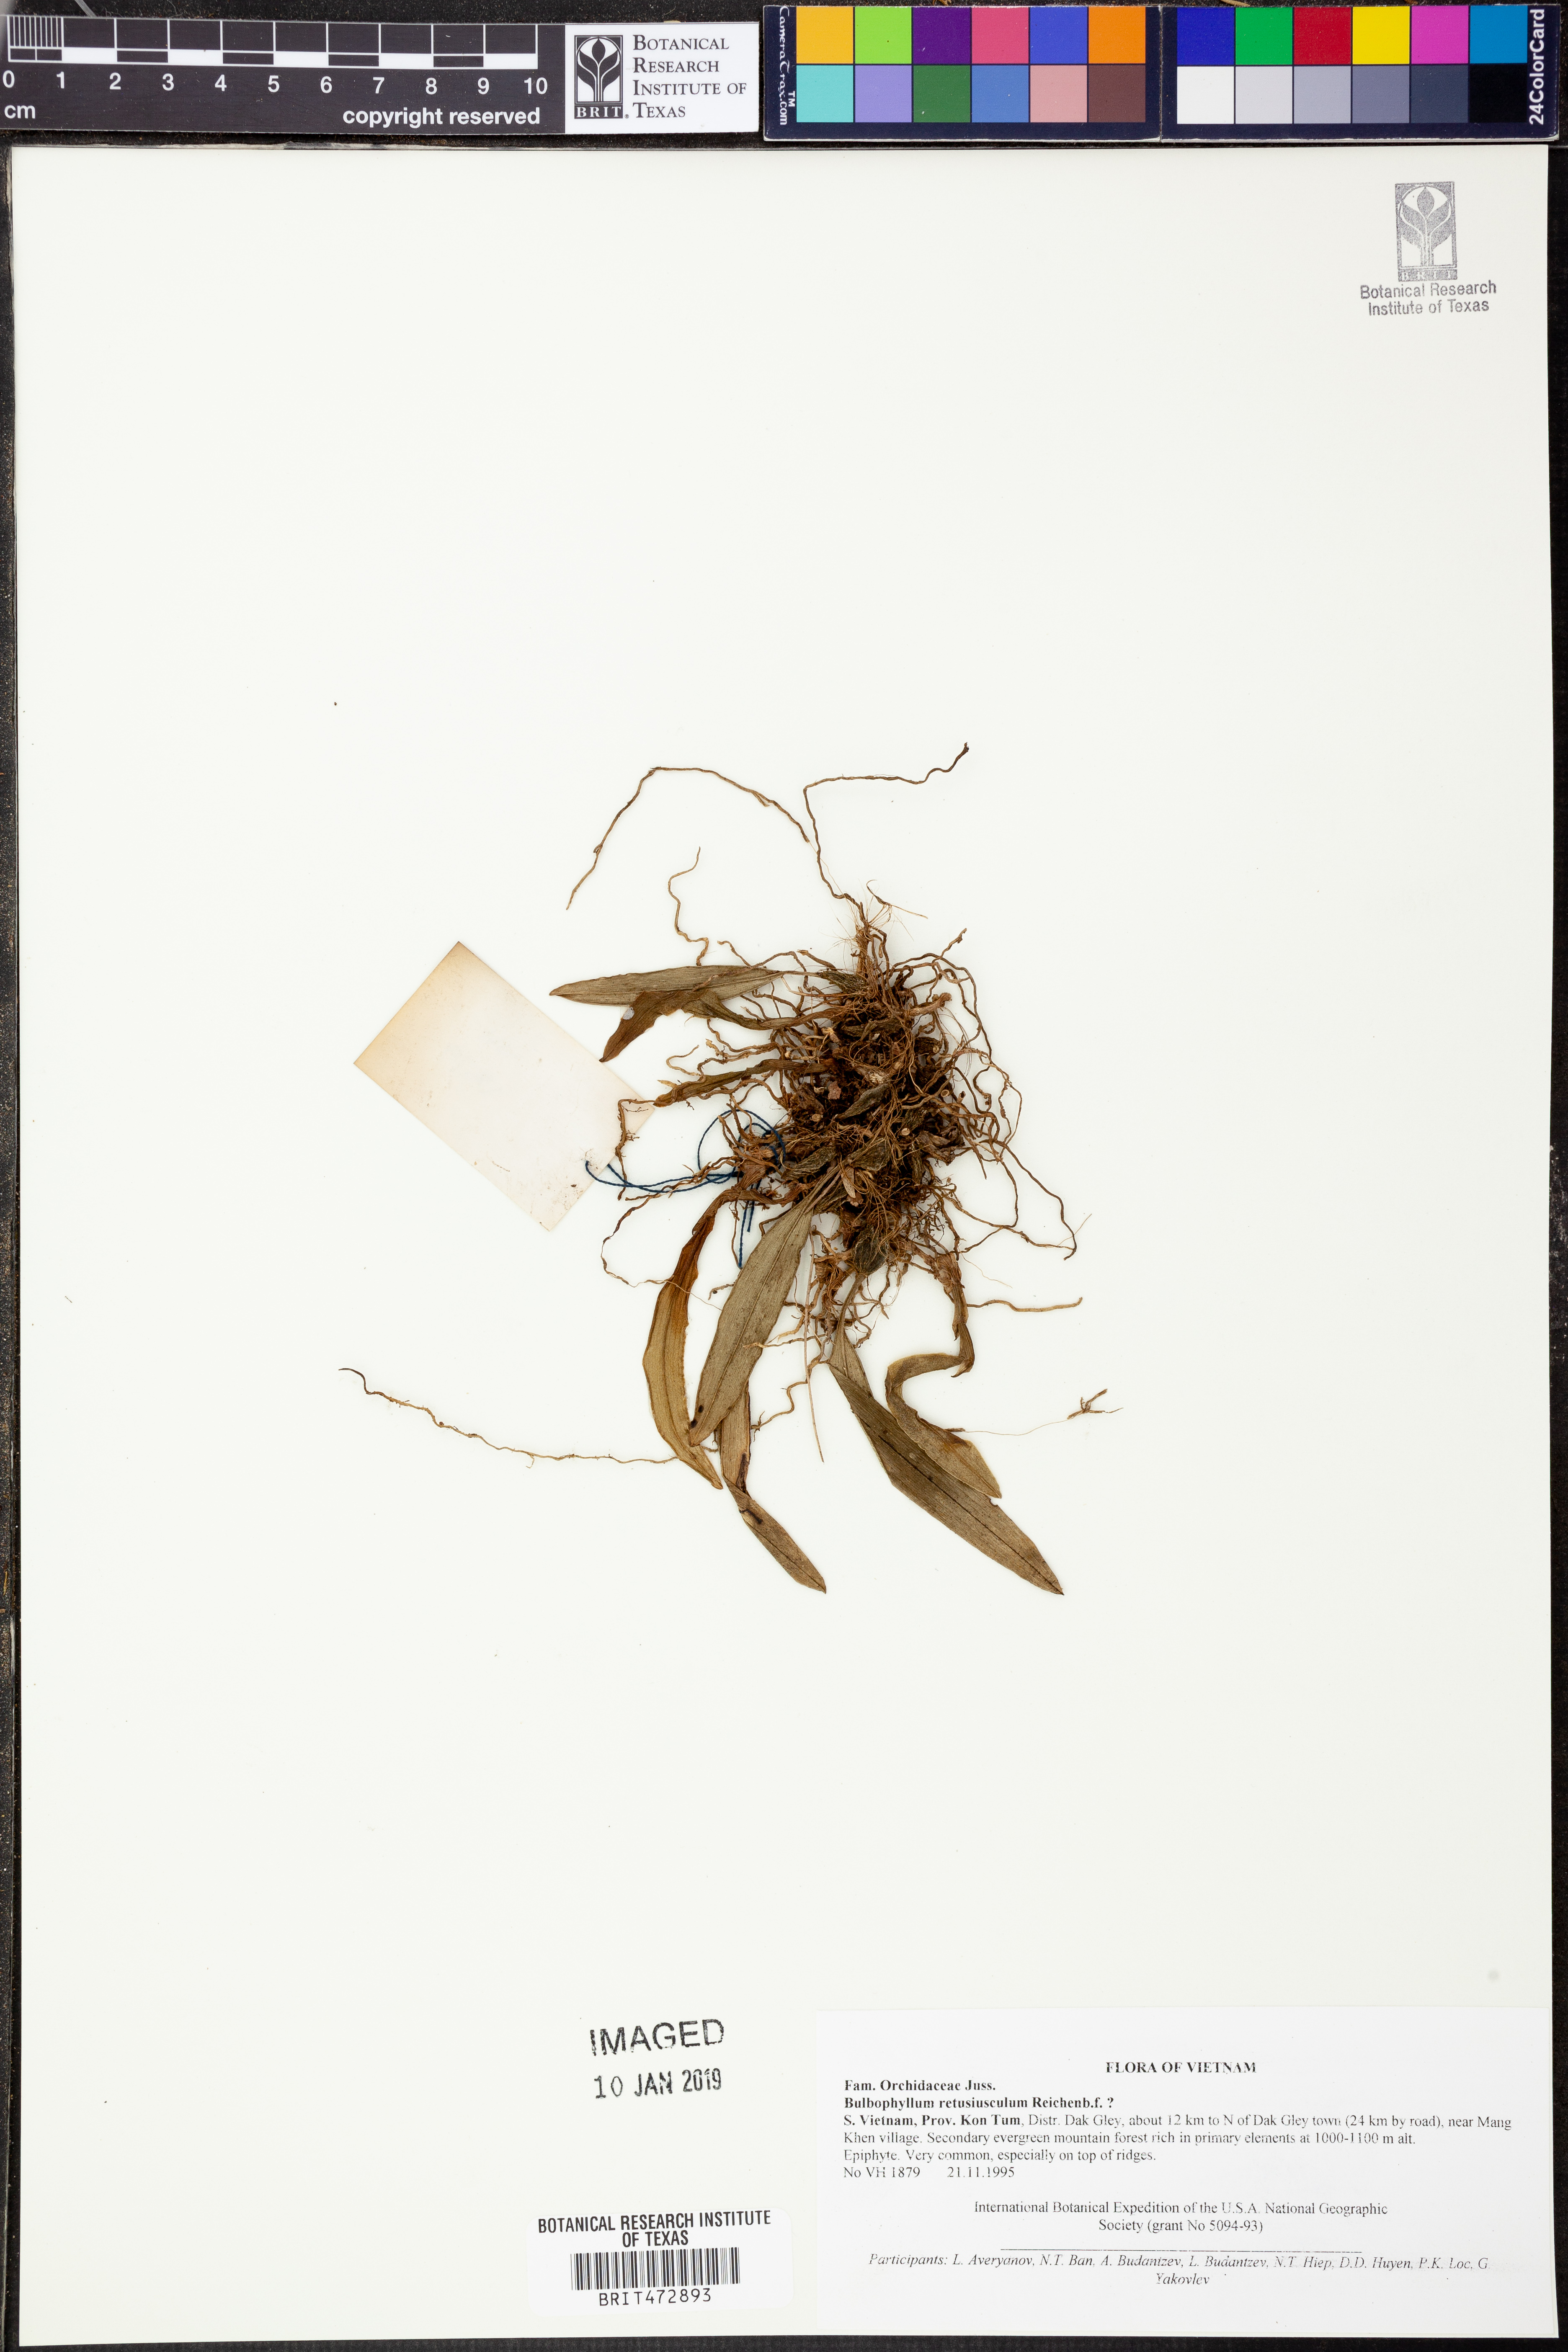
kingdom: Plantae
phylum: Tracheophyta
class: Liliopsida
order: Asparagales
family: Orchidaceae
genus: Bulbophyllum
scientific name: Bulbophyllum retusiusculum
